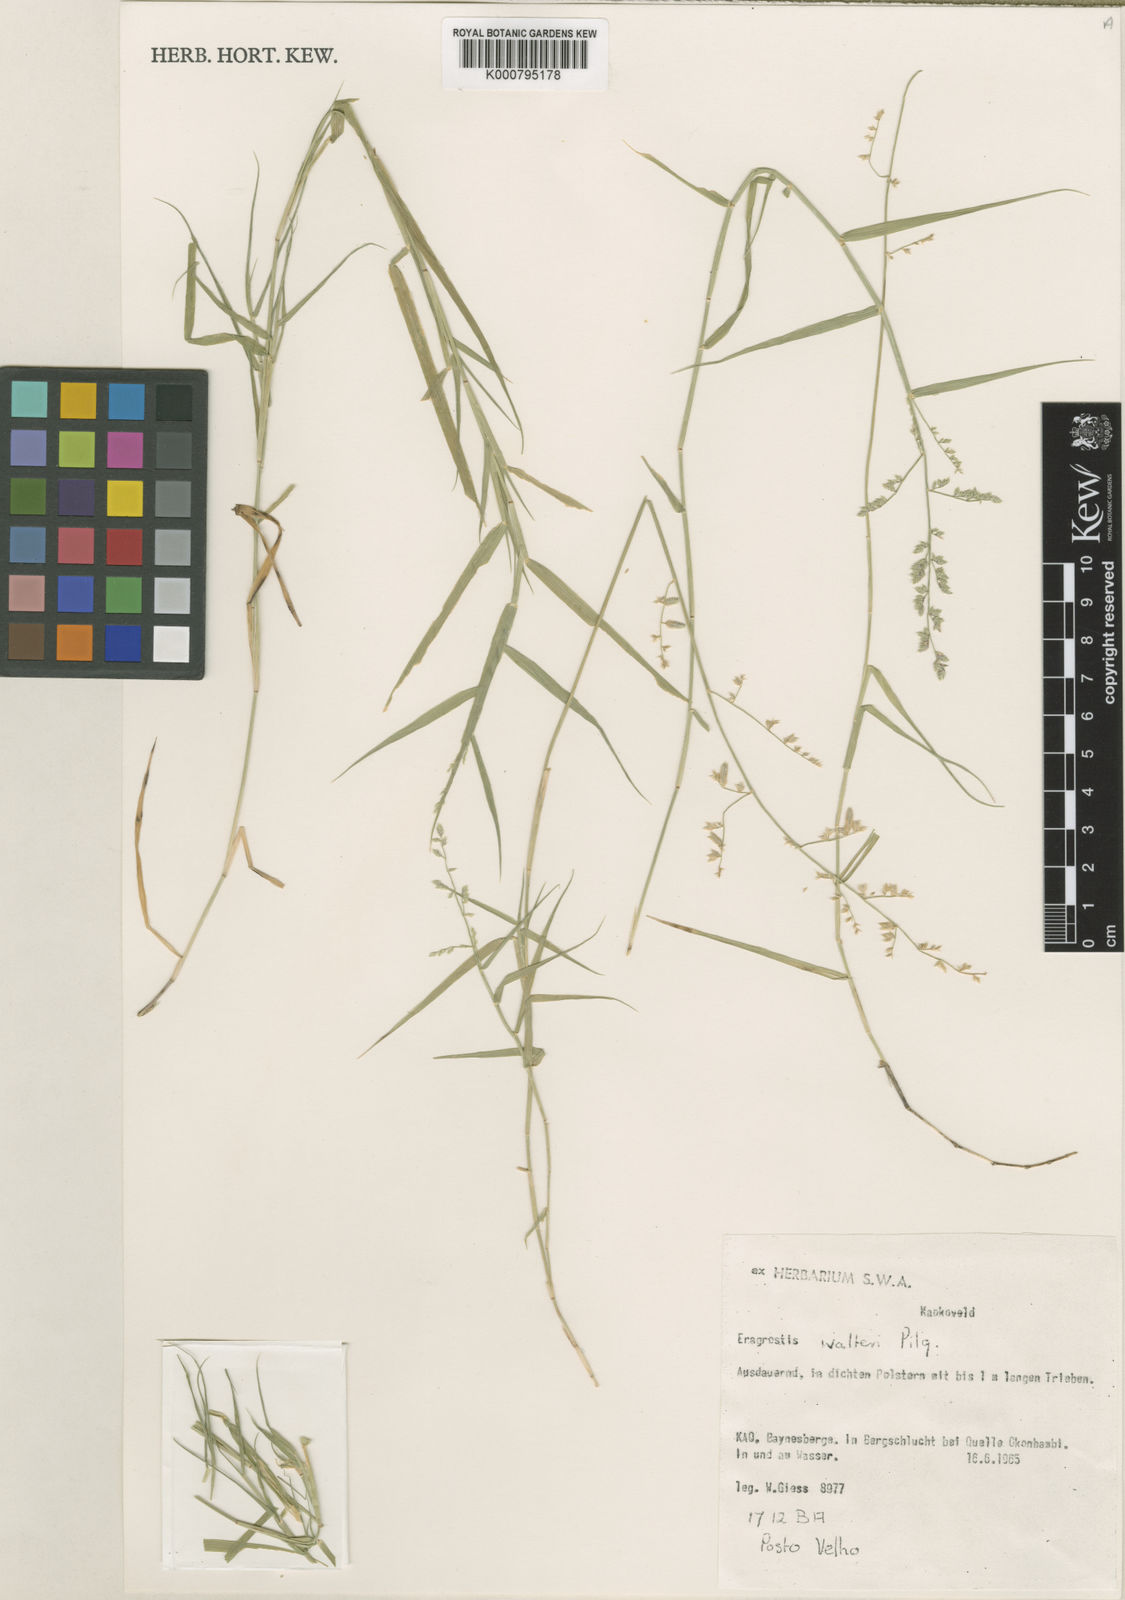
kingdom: Plantae
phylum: Tracheophyta
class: Liliopsida
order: Poales
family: Poaceae
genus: Pratochloa
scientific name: Pratochloa walteri
